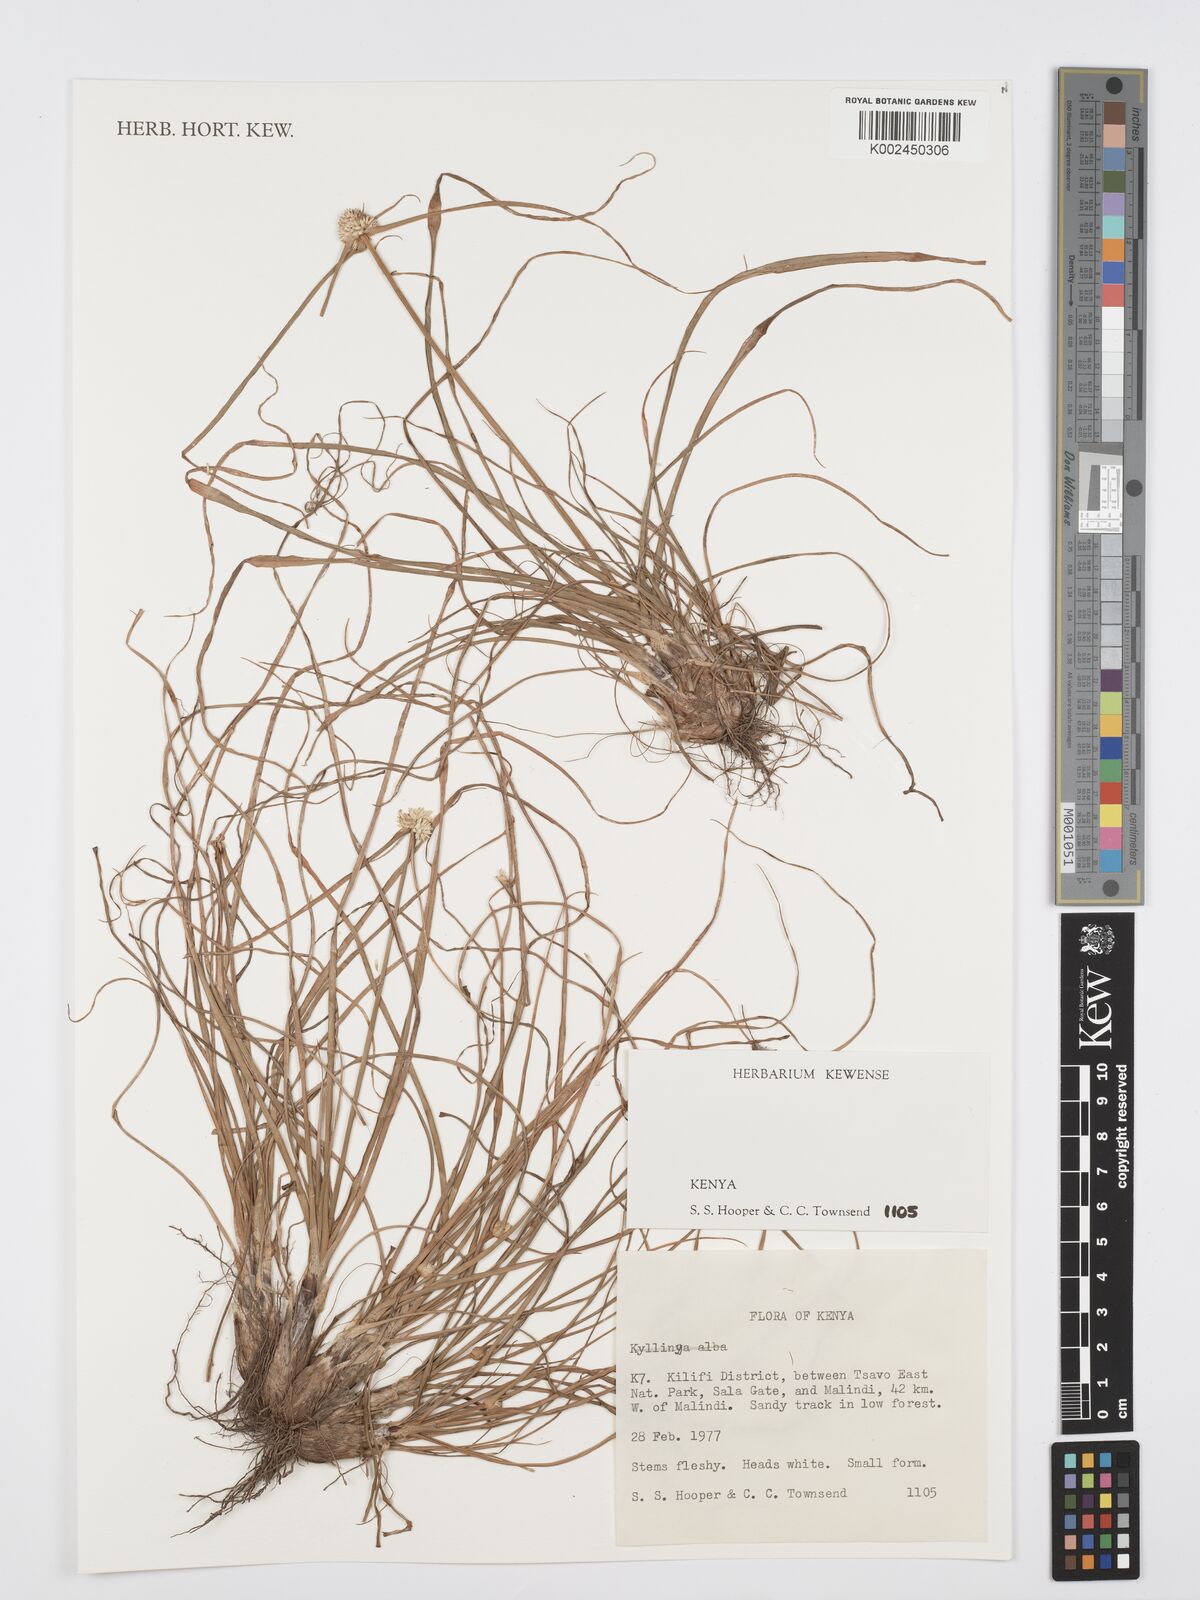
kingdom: Plantae
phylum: Tracheophyta
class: Liliopsida
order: Poales
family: Cyperaceae
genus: Cyperus
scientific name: Cyperus
